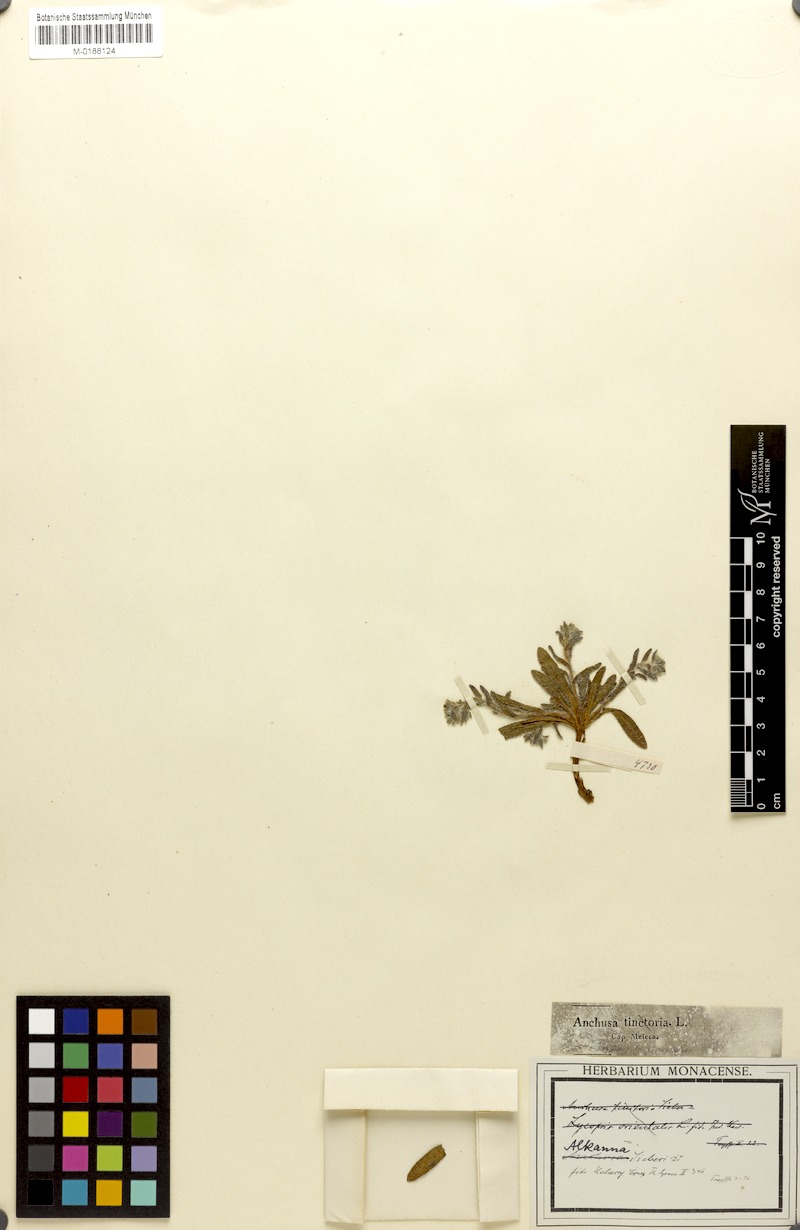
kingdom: Plantae
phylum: Tracheophyta
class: Magnoliopsida
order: Boraginales
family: Boraginaceae
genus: Alkanna
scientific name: Alkanna sieberi
